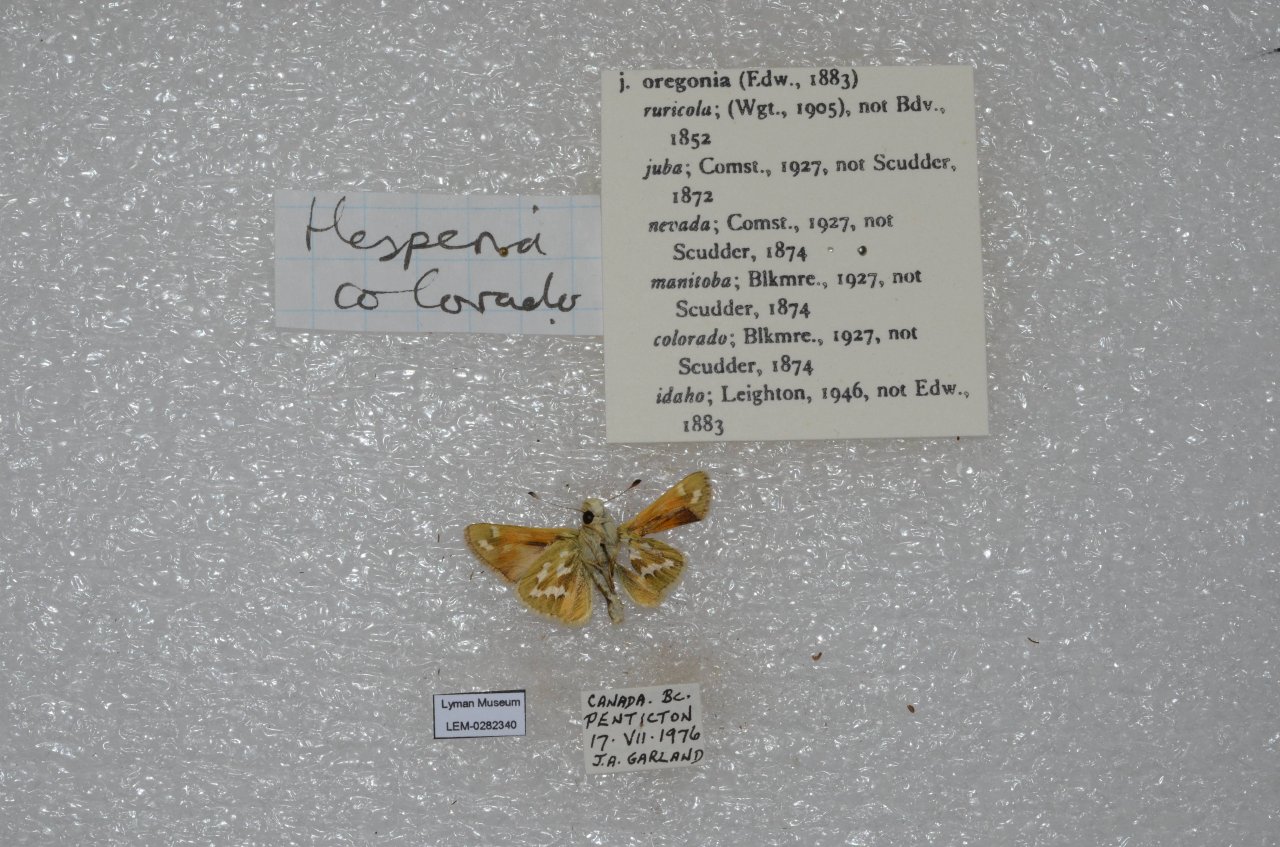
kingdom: Animalia
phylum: Arthropoda
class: Insecta
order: Lepidoptera
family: Hesperiidae
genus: Hesperia
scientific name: Hesperia comma
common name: Western Branded Skipper
